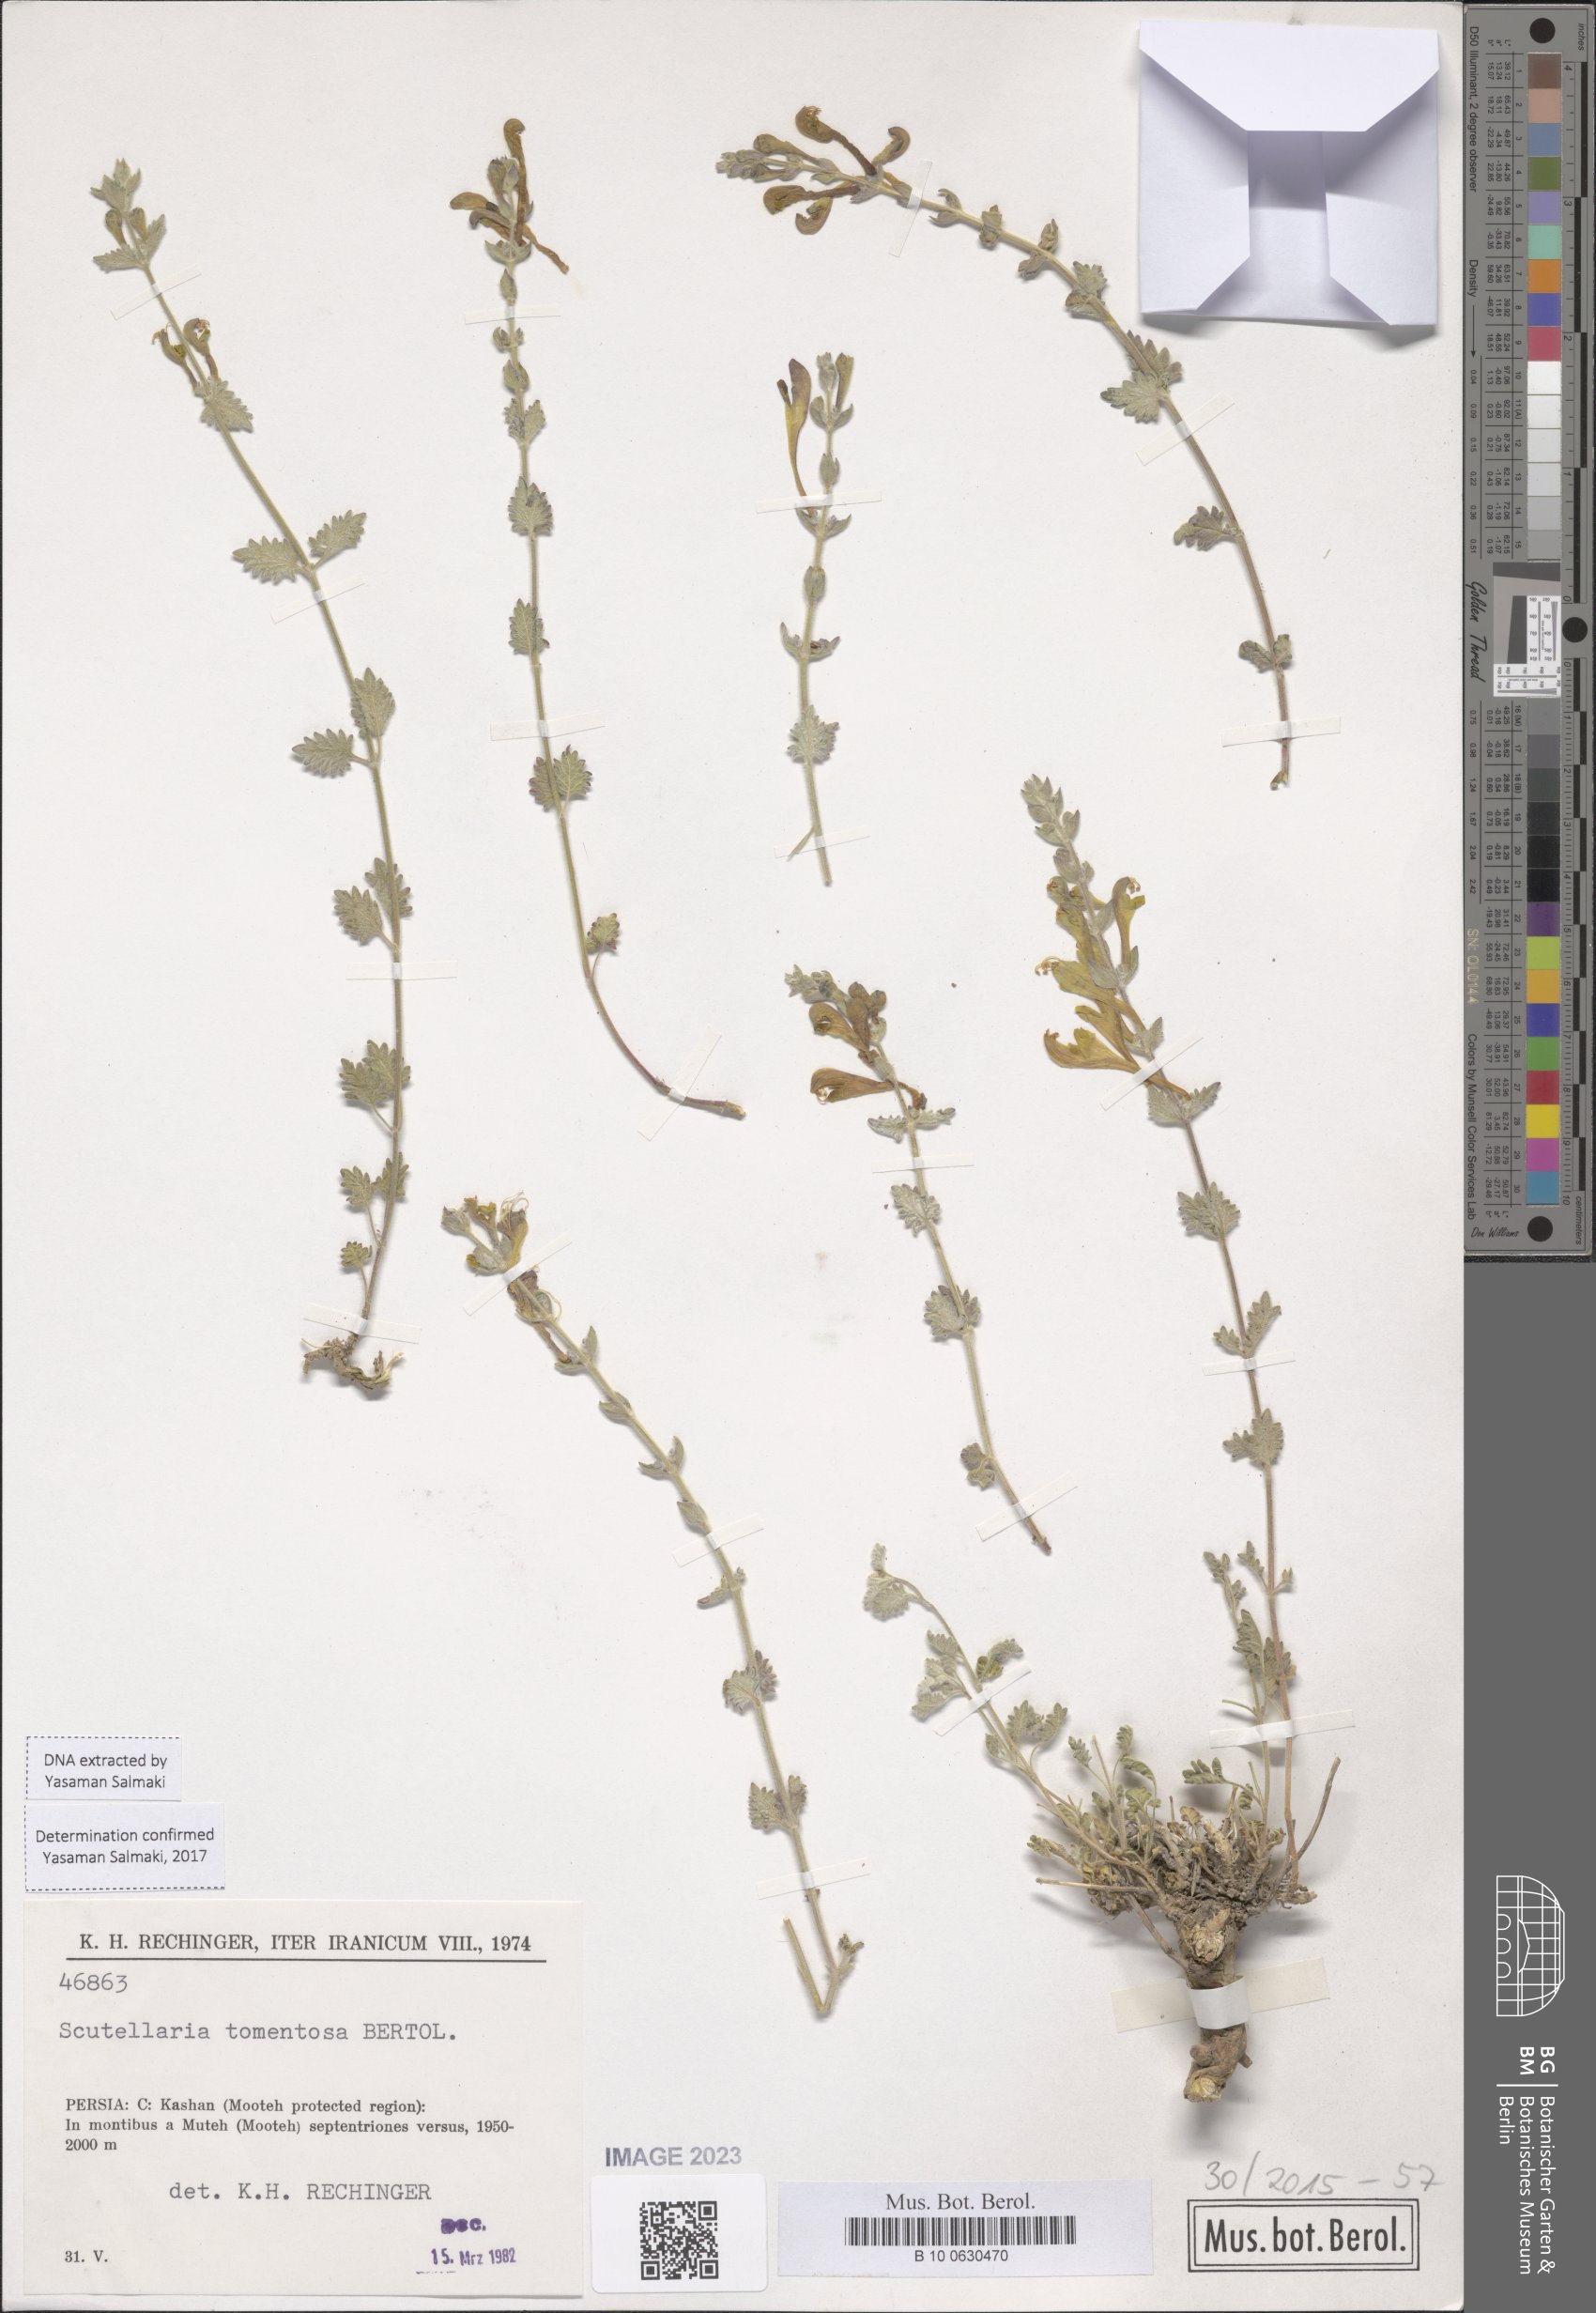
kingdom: Plantae
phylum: Tracheophyta
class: Magnoliopsida
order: Lamiales
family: Lamiaceae
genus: Scutellaria
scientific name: Scutellaria tomentosa
